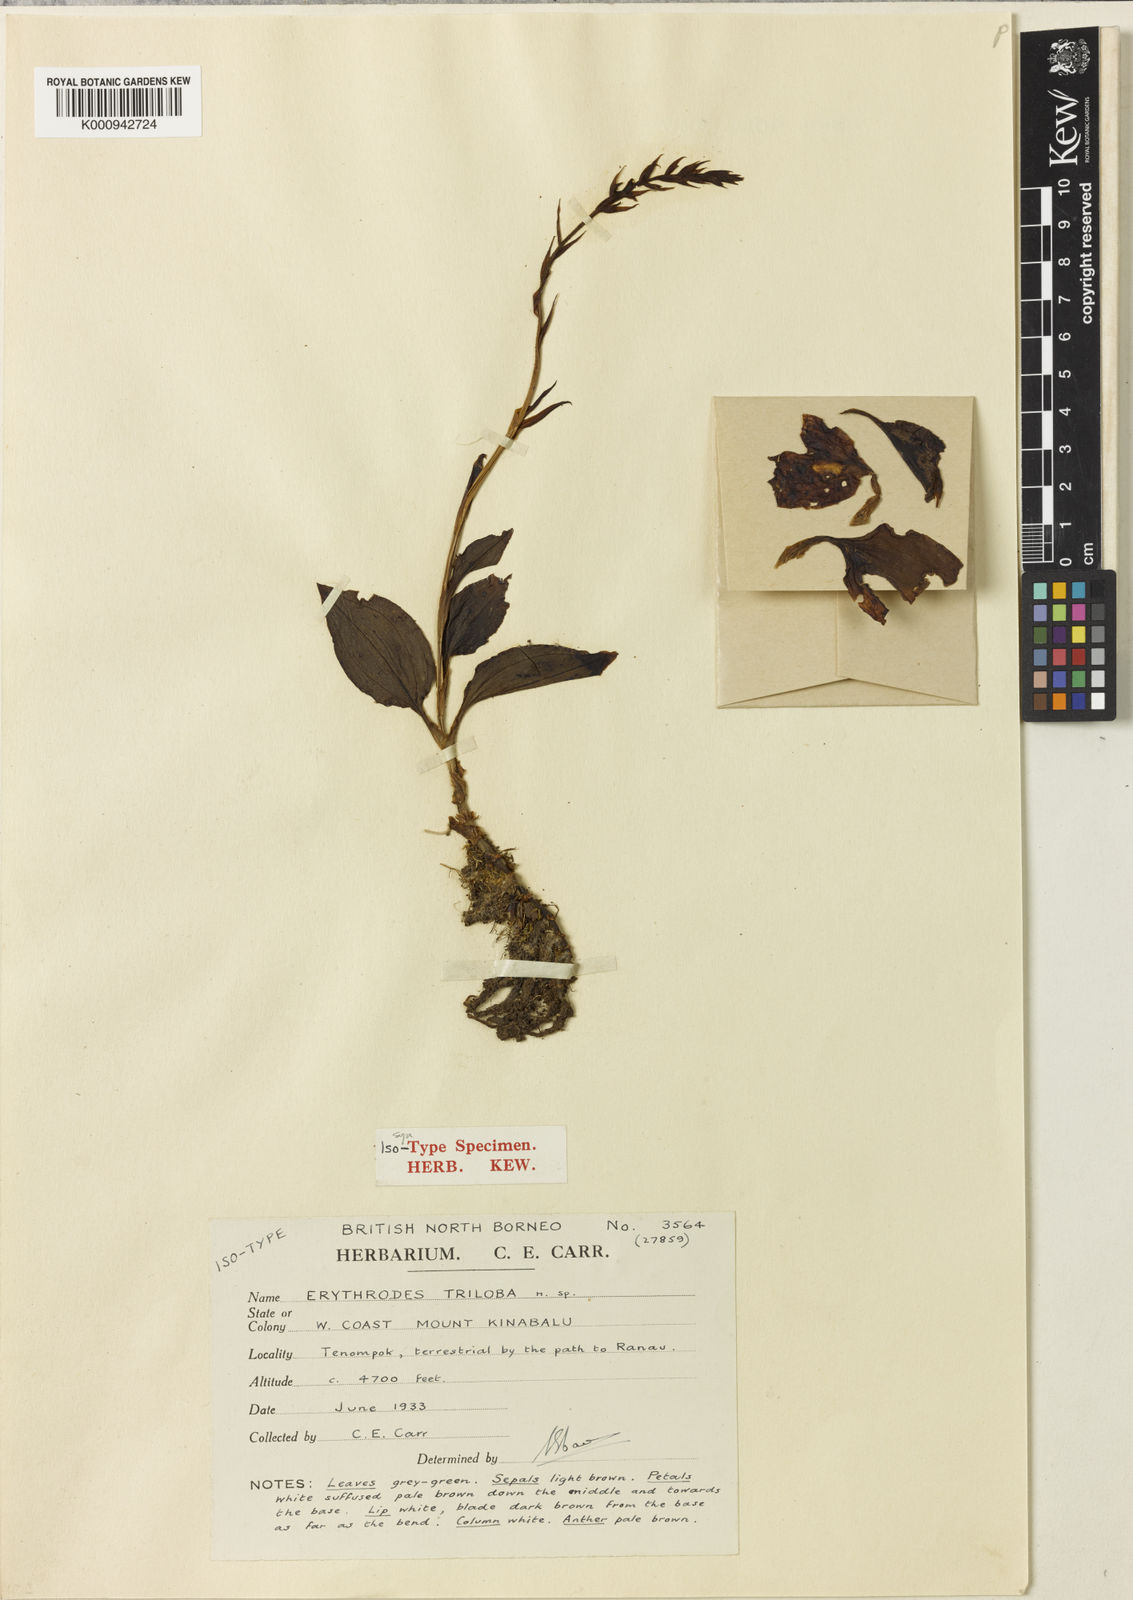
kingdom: Plantae
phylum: Tracheophyta
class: Liliopsida
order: Asparagales
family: Orchidaceae
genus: Erythrodes
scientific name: Erythrodes triloba
